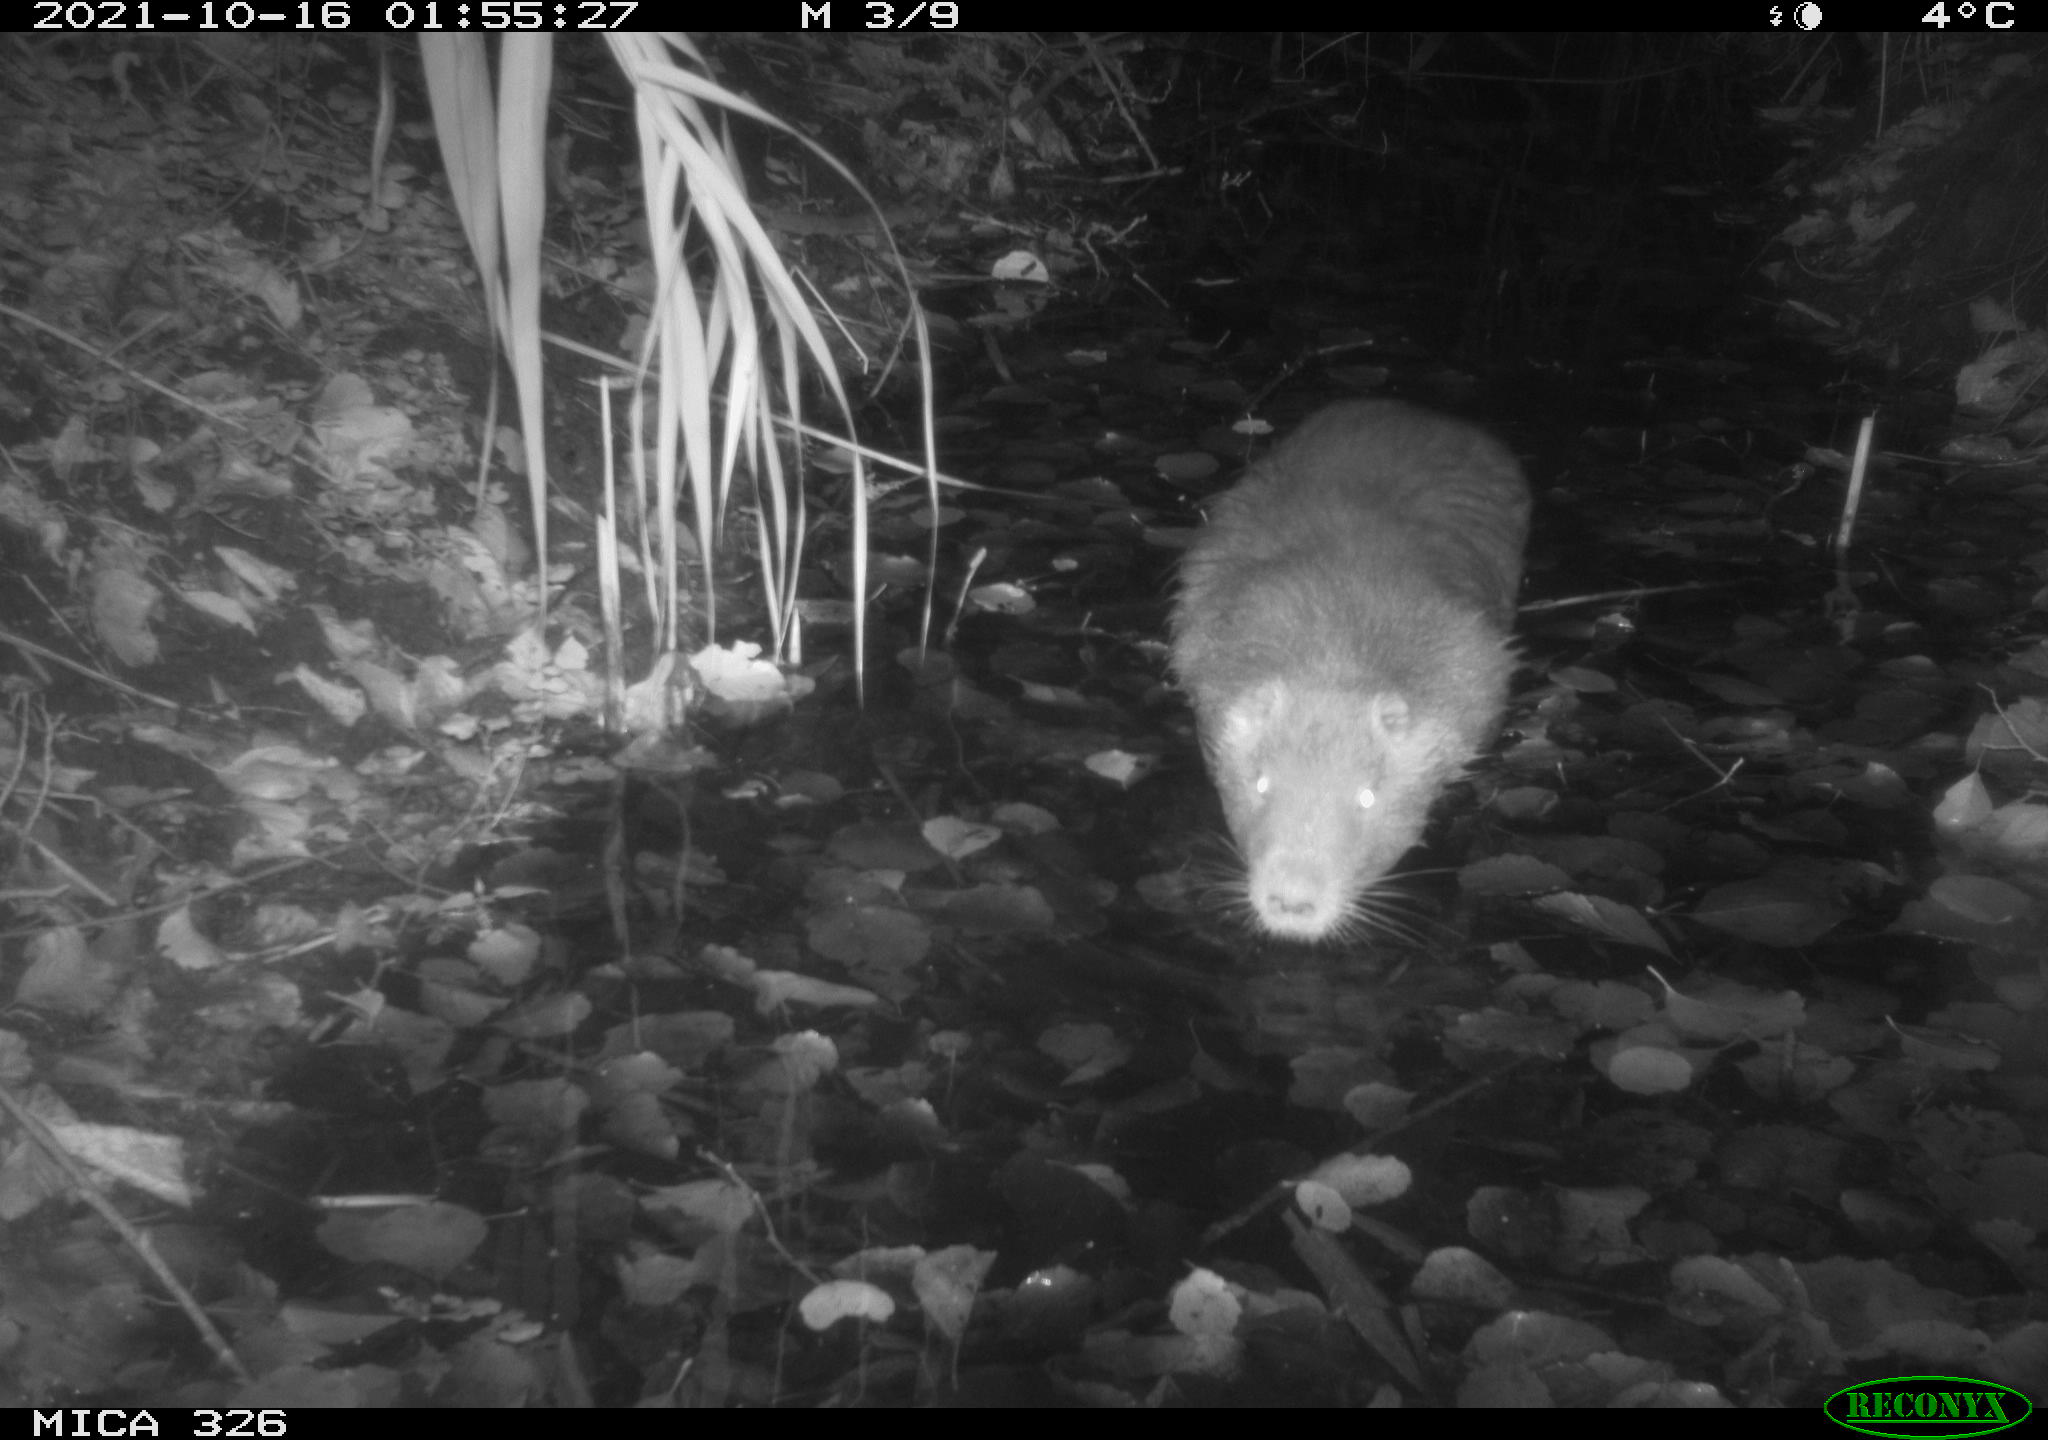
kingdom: Animalia
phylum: Chordata
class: Mammalia
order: Rodentia
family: Myocastoridae
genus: Myocastor
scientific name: Myocastor coypus
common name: Coypu
